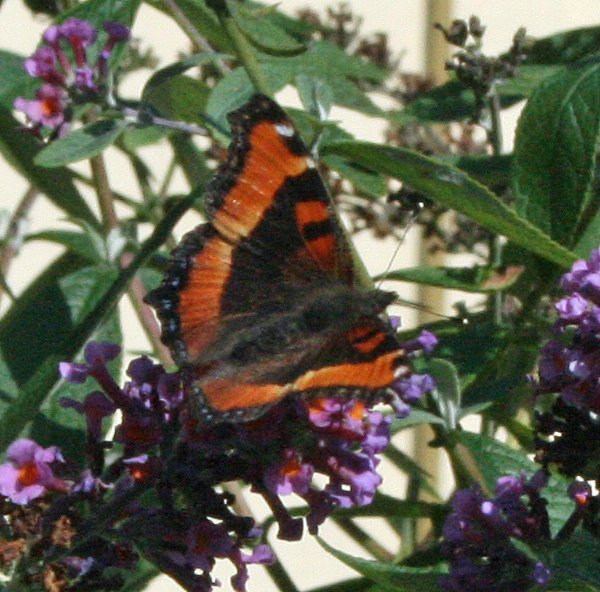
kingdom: Animalia
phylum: Arthropoda
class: Insecta
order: Lepidoptera
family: Nymphalidae
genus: Aglais
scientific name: Aglais milberti
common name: Milbert's Tortoiseshell
